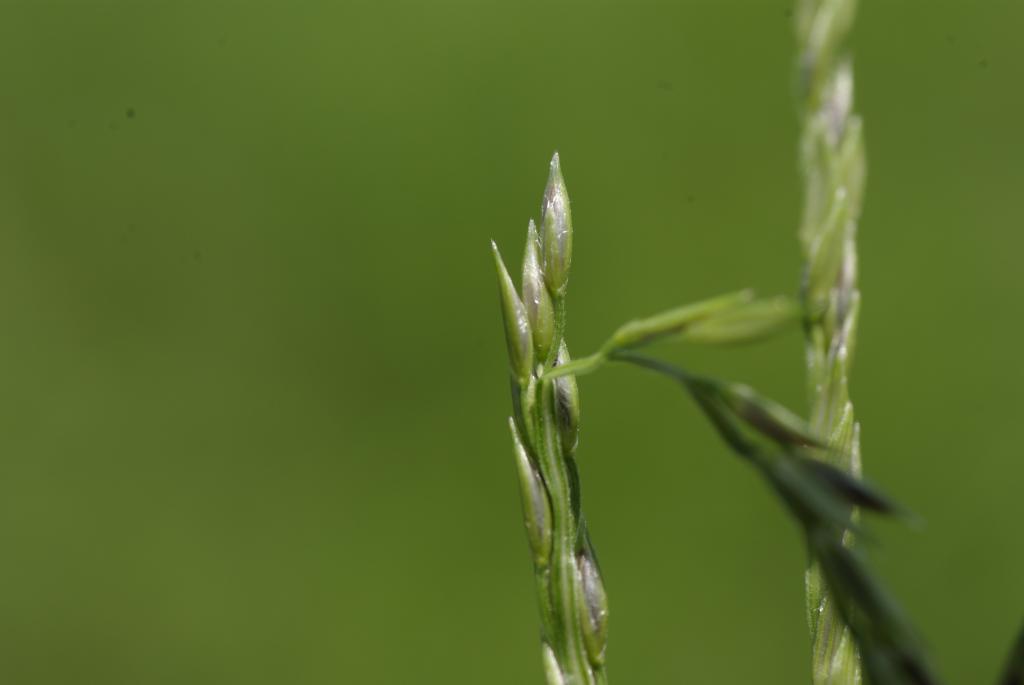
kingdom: Plantae
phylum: Tracheophyta
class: Liliopsida
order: Poales
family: Poaceae
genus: Digitaria
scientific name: Digitaria sanguinalis
